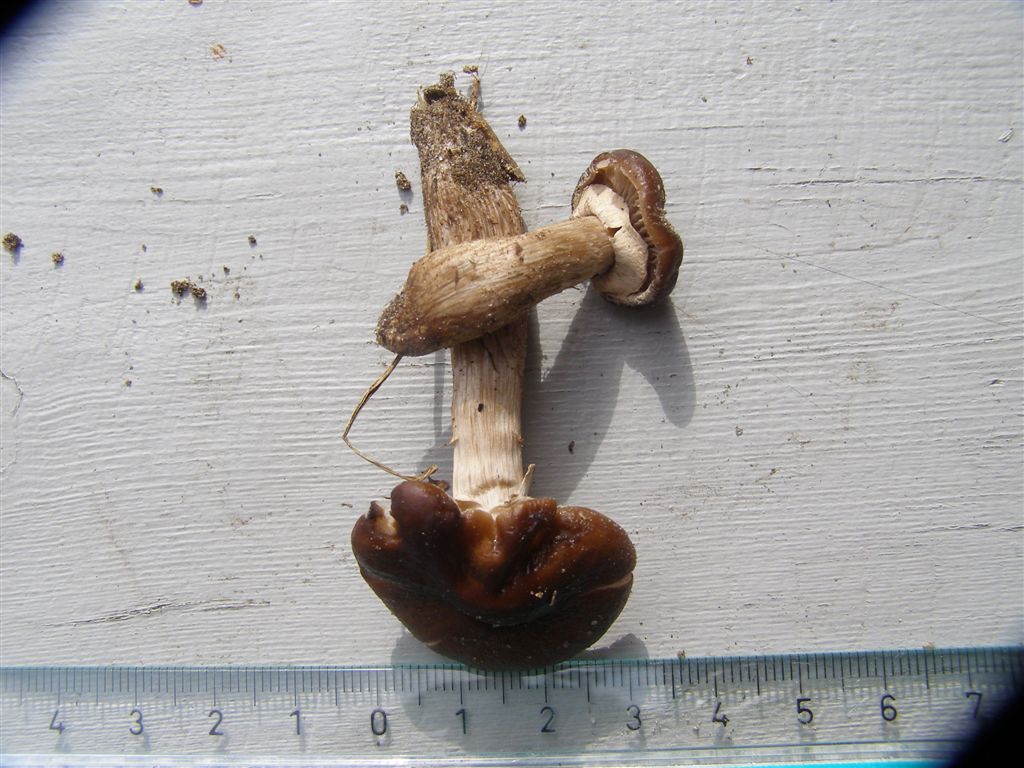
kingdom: Fungi
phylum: Basidiomycota
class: Agaricomycetes
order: Agaricales
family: Tubariaceae
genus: Cyclocybe
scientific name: Cyclocybe erebia
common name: mørk agerhat
